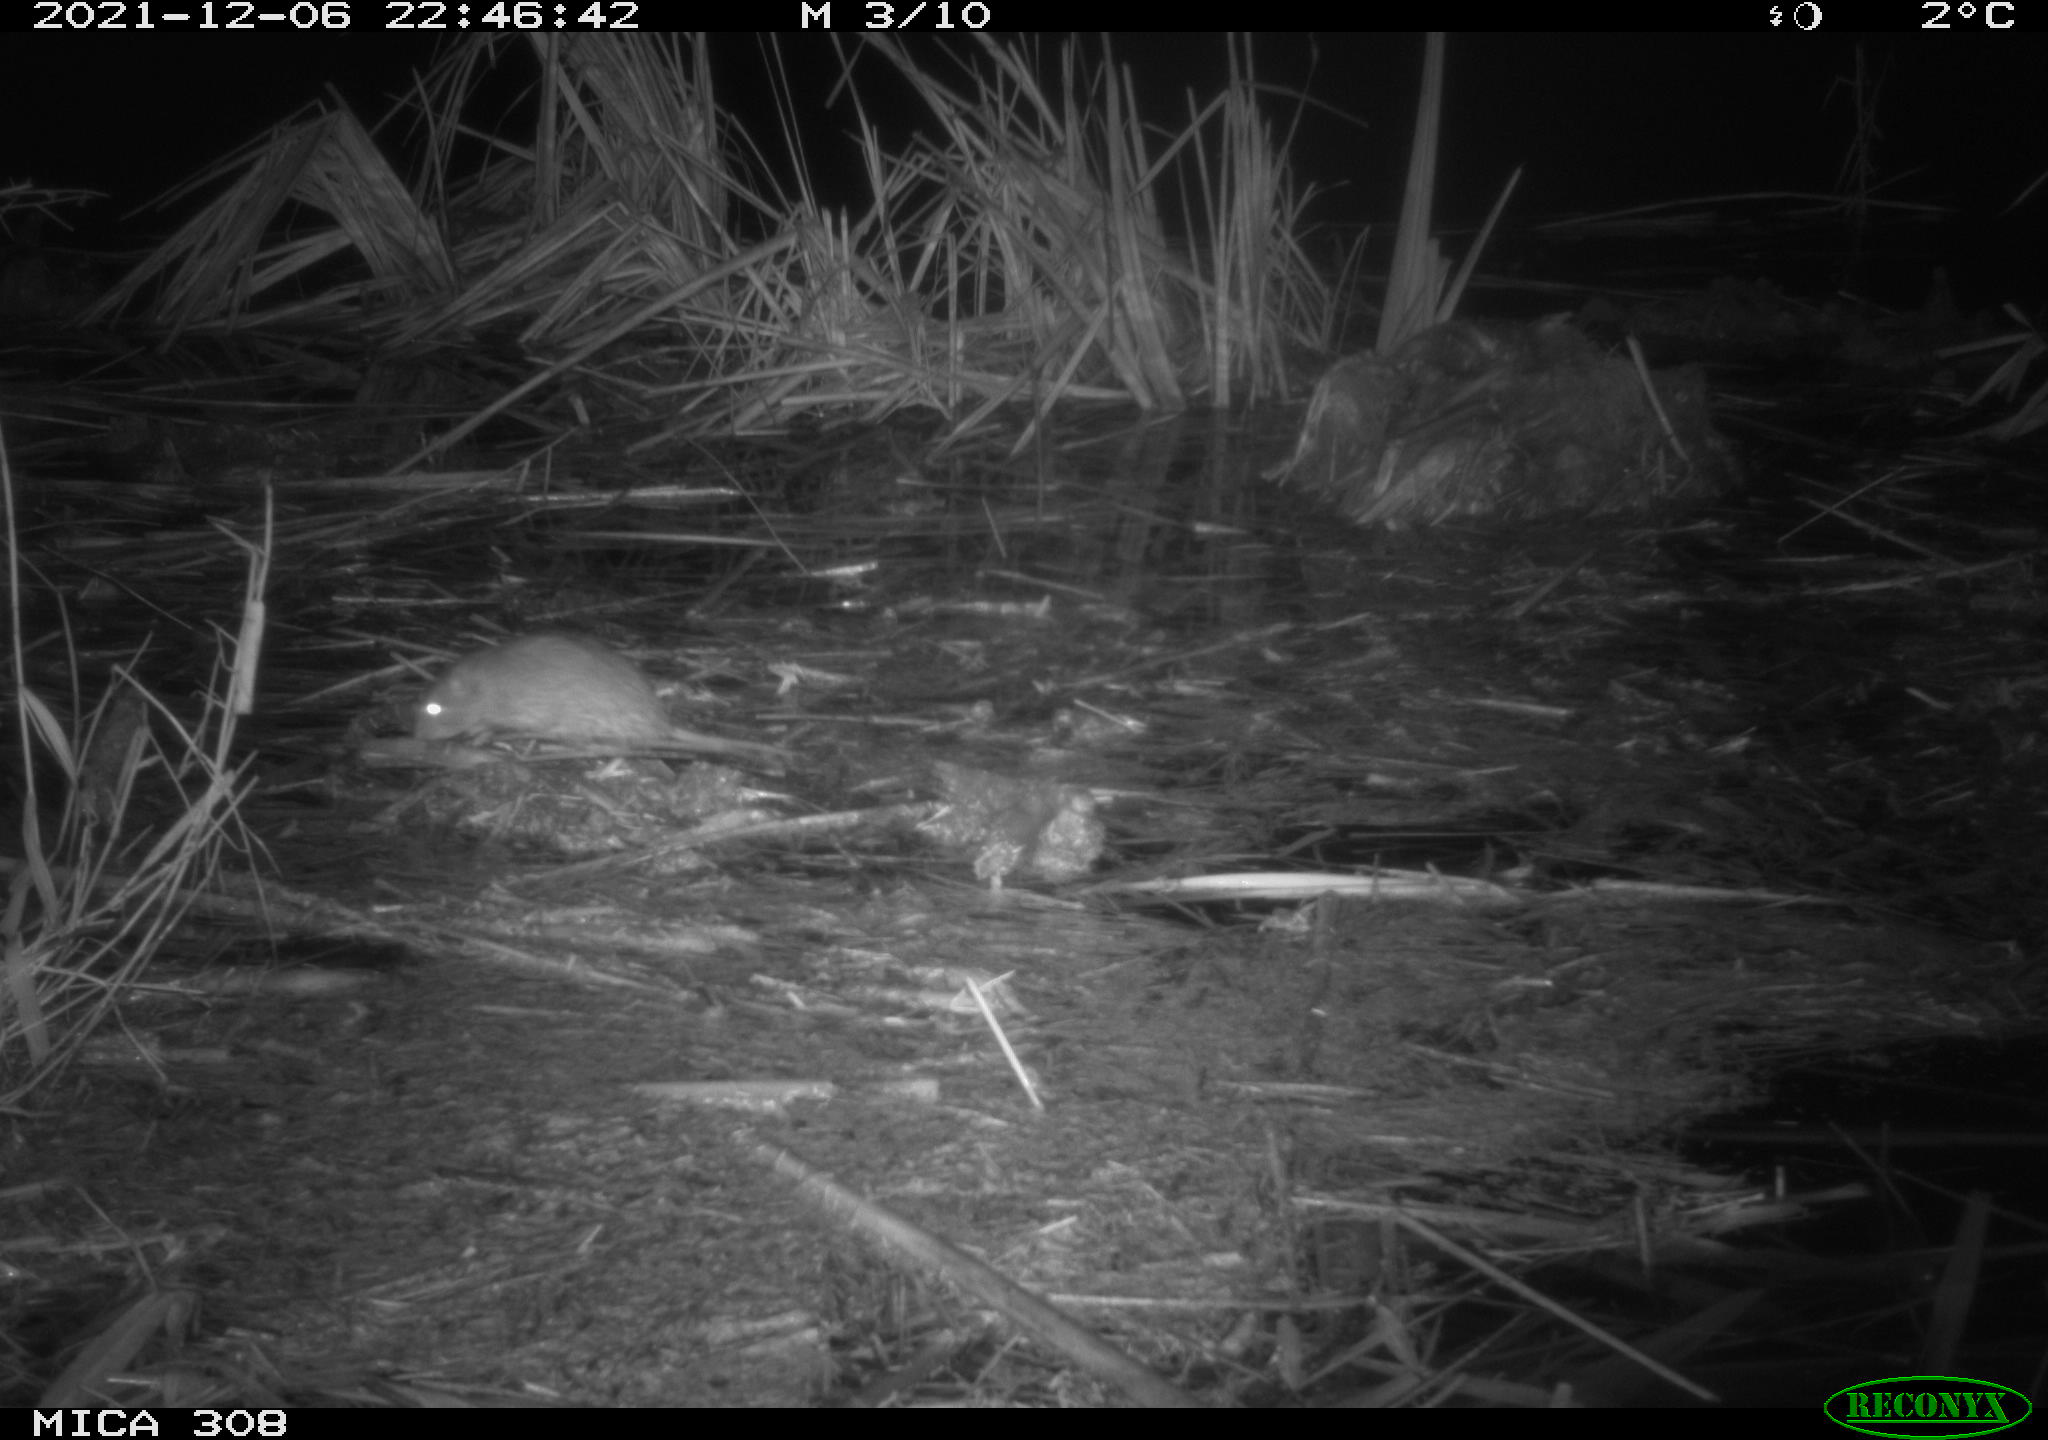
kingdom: Animalia
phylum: Chordata
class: Mammalia
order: Rodentia
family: Muridae
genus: Rattus
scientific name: Rattus norvegicus
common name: Brown rat
